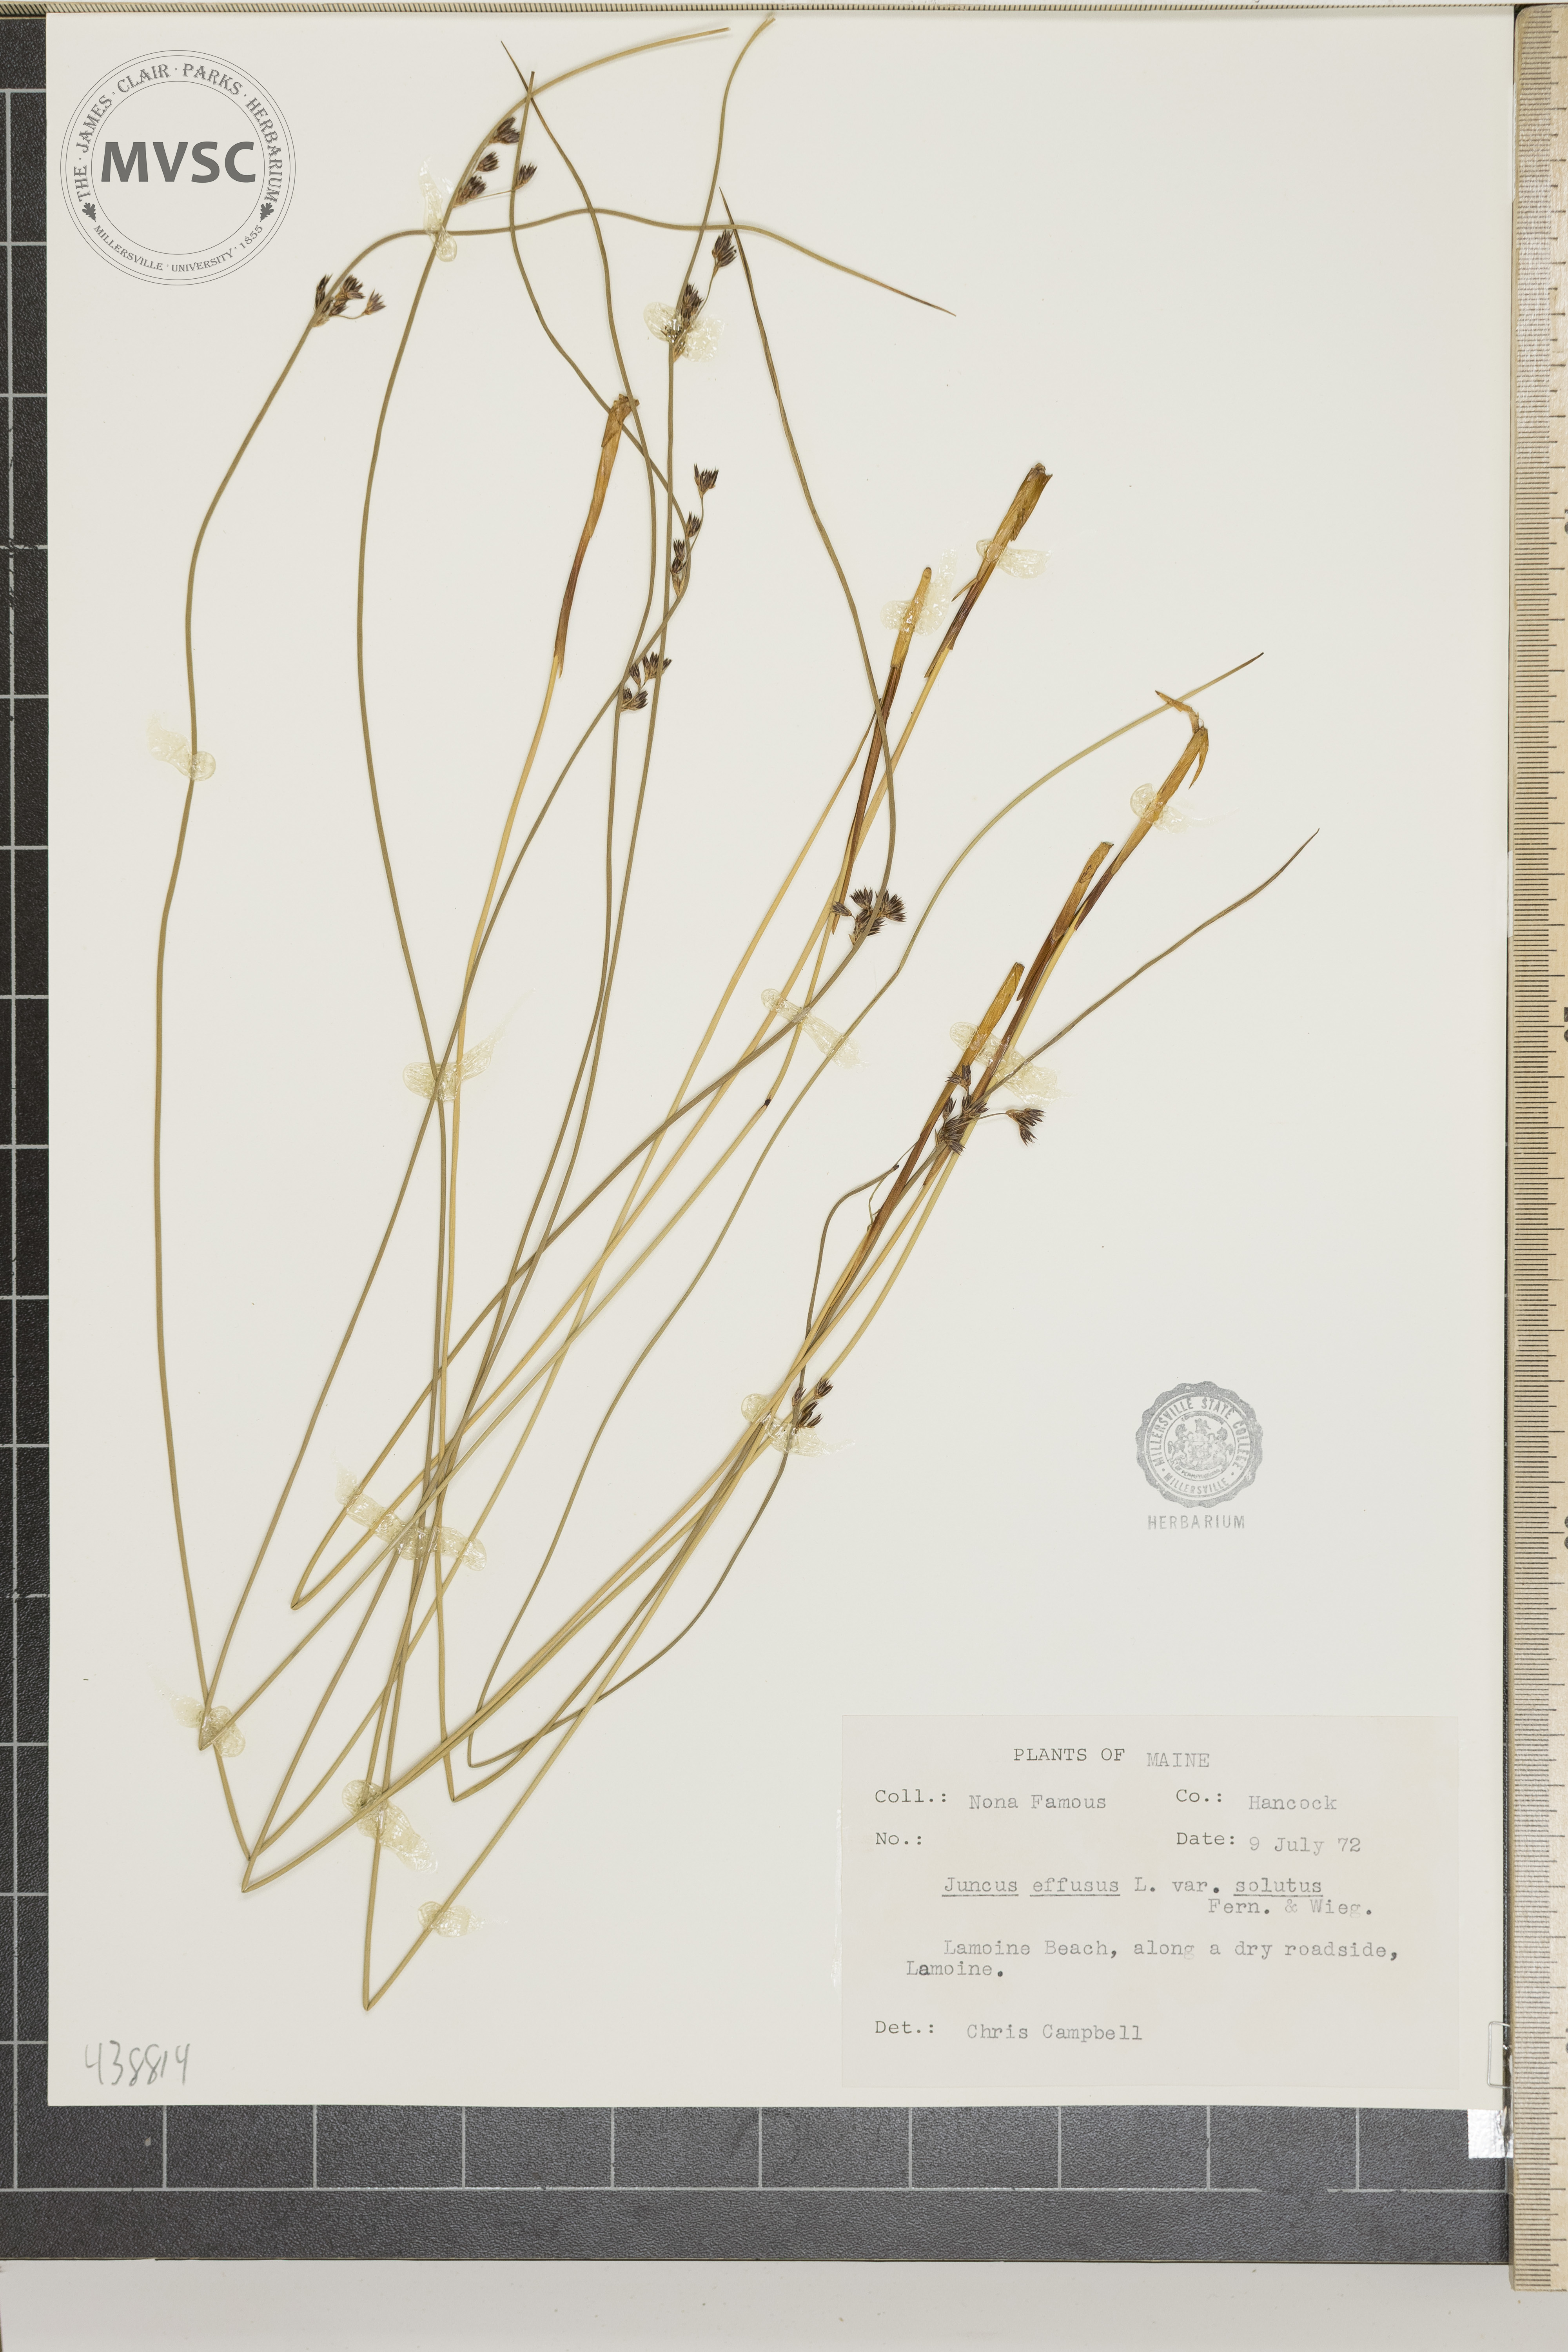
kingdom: Plantae
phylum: Tracheophyta
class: Liliopsida
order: Poales
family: Juncaceae
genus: Juncus
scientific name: Juncus effusus
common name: Soft rush
